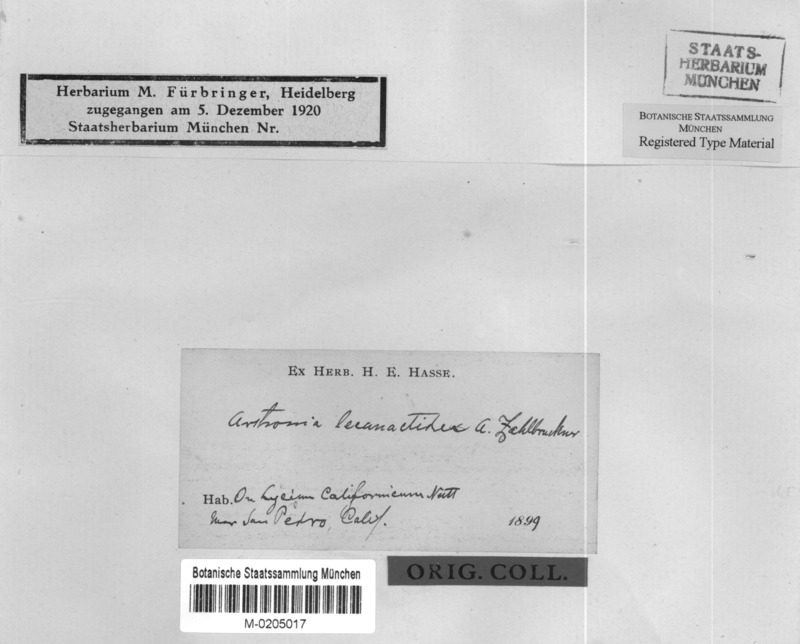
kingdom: Fungi
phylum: Ascomycota
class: Arthoniomycetes
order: Arthoniales
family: Arthoniaceae
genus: Arthonia
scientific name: Arthonia lecanactidea
